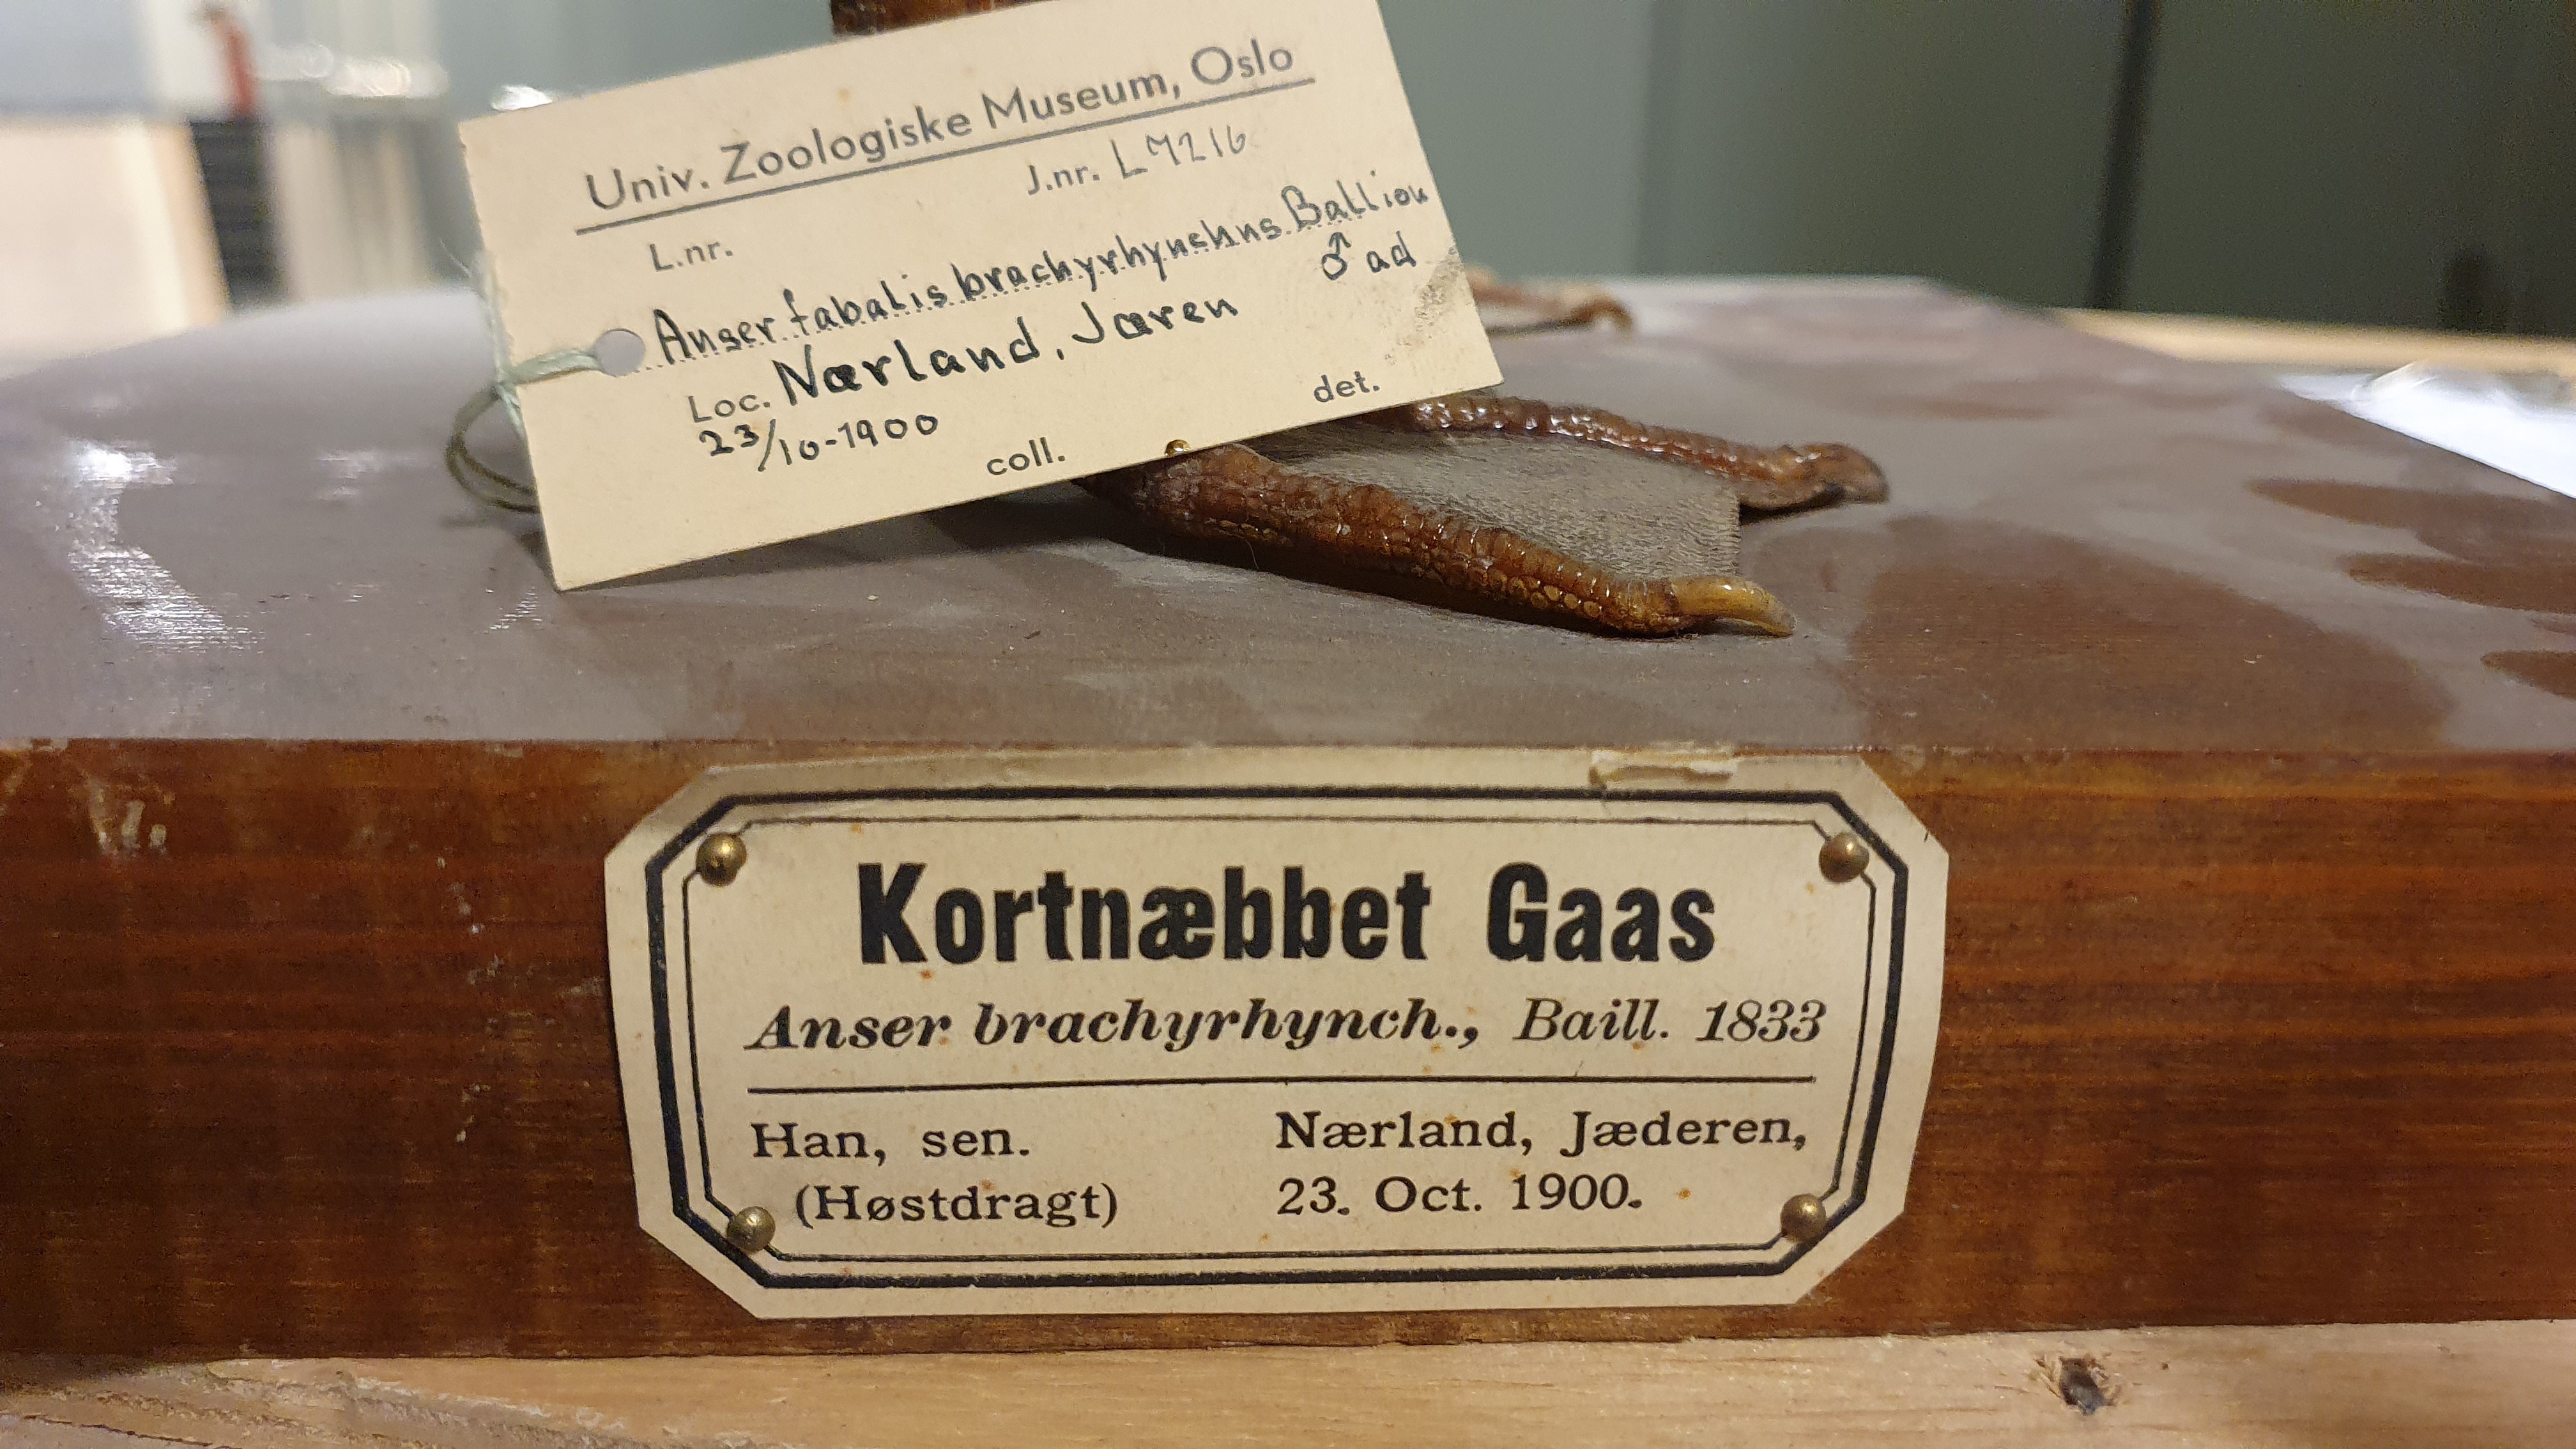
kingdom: Animalia
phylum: Chordata
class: Aves
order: Anseriformes
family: Anatidae
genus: Anser
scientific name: Anser brachyrhynchus
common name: Pink-footed goose
